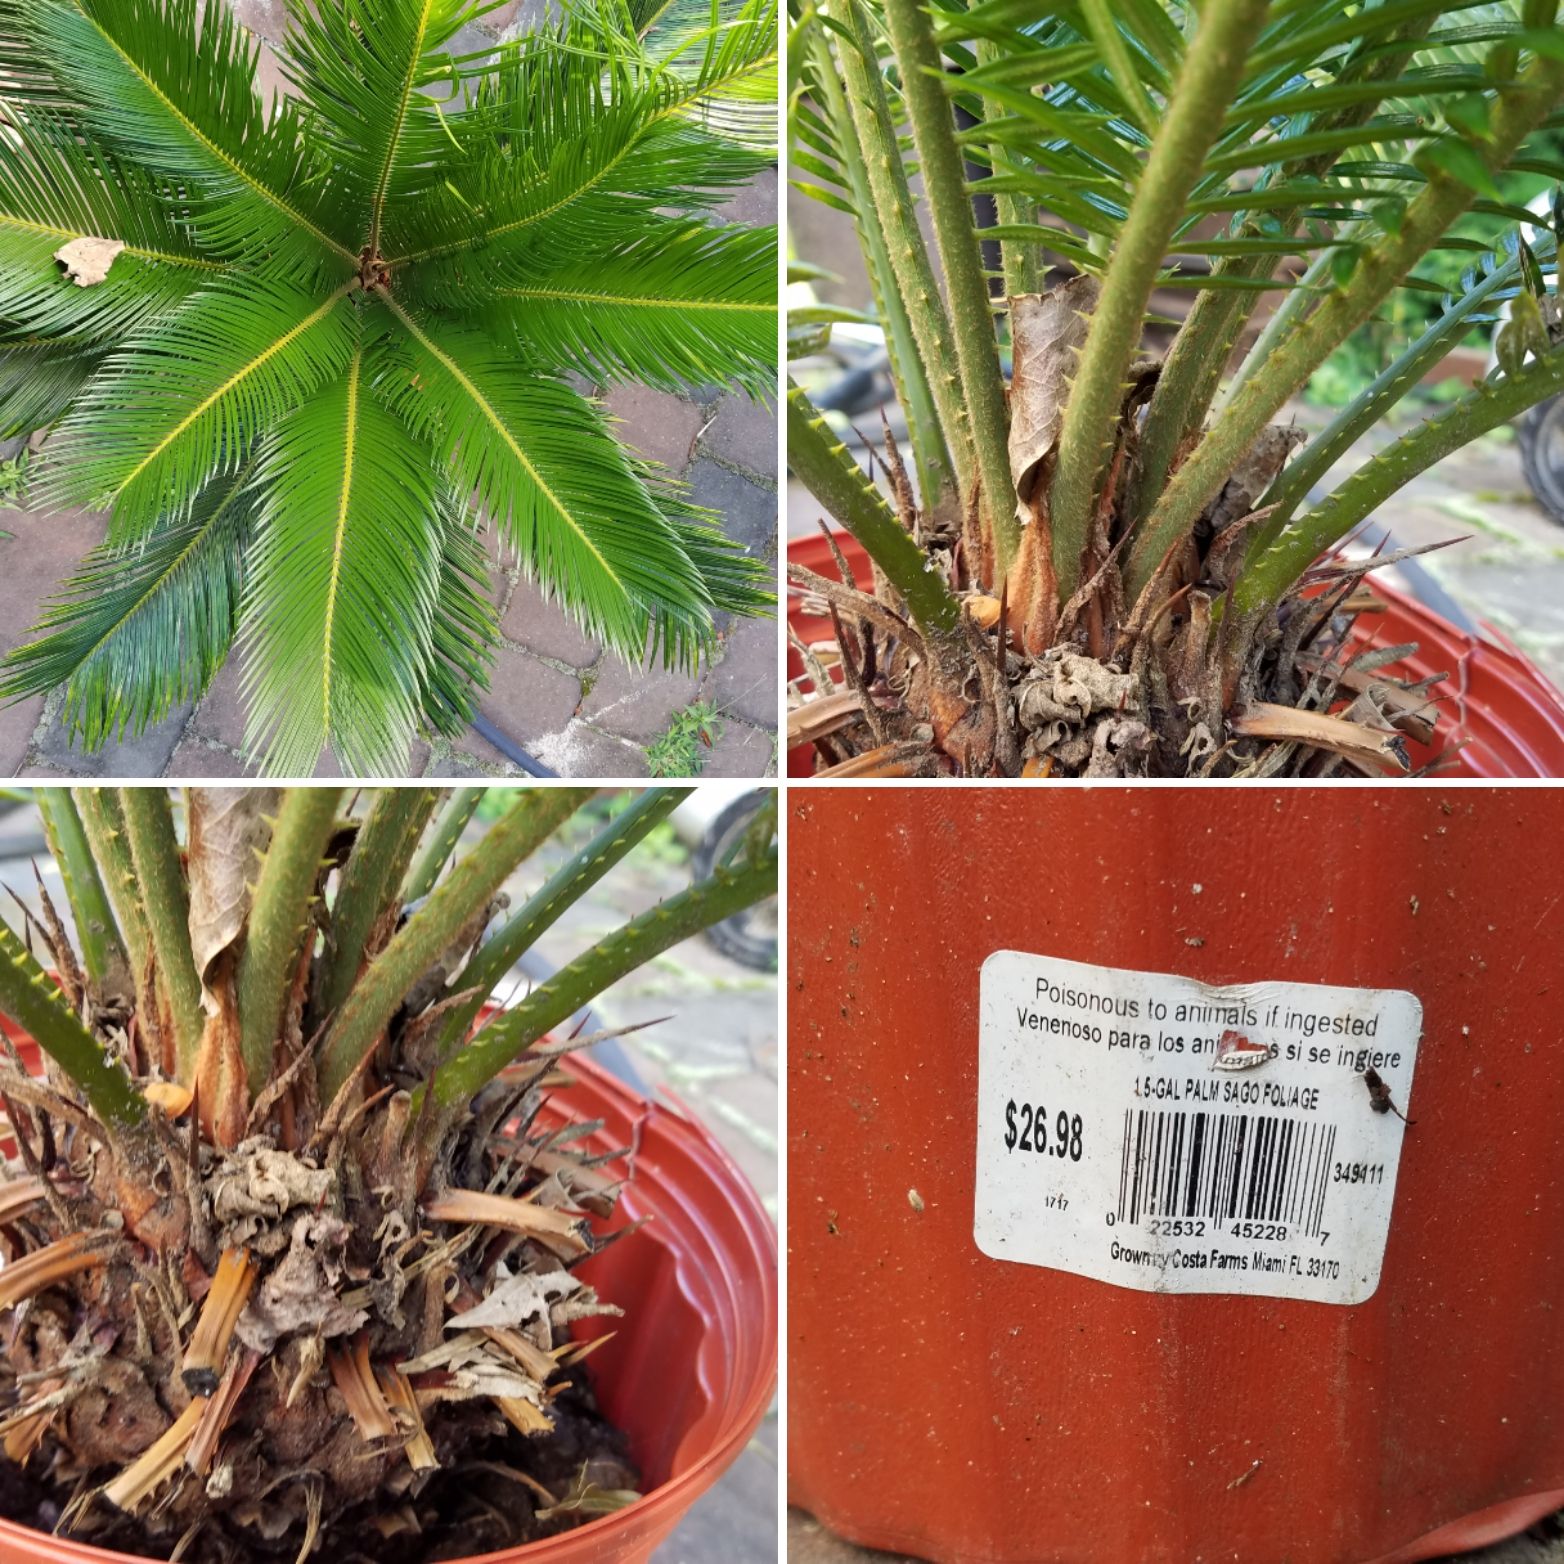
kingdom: Plantae
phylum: Tracheophyta
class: Cycadopsida
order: Cycadales
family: Cycadaceae
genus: Cycas
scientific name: Cycas circinalis
